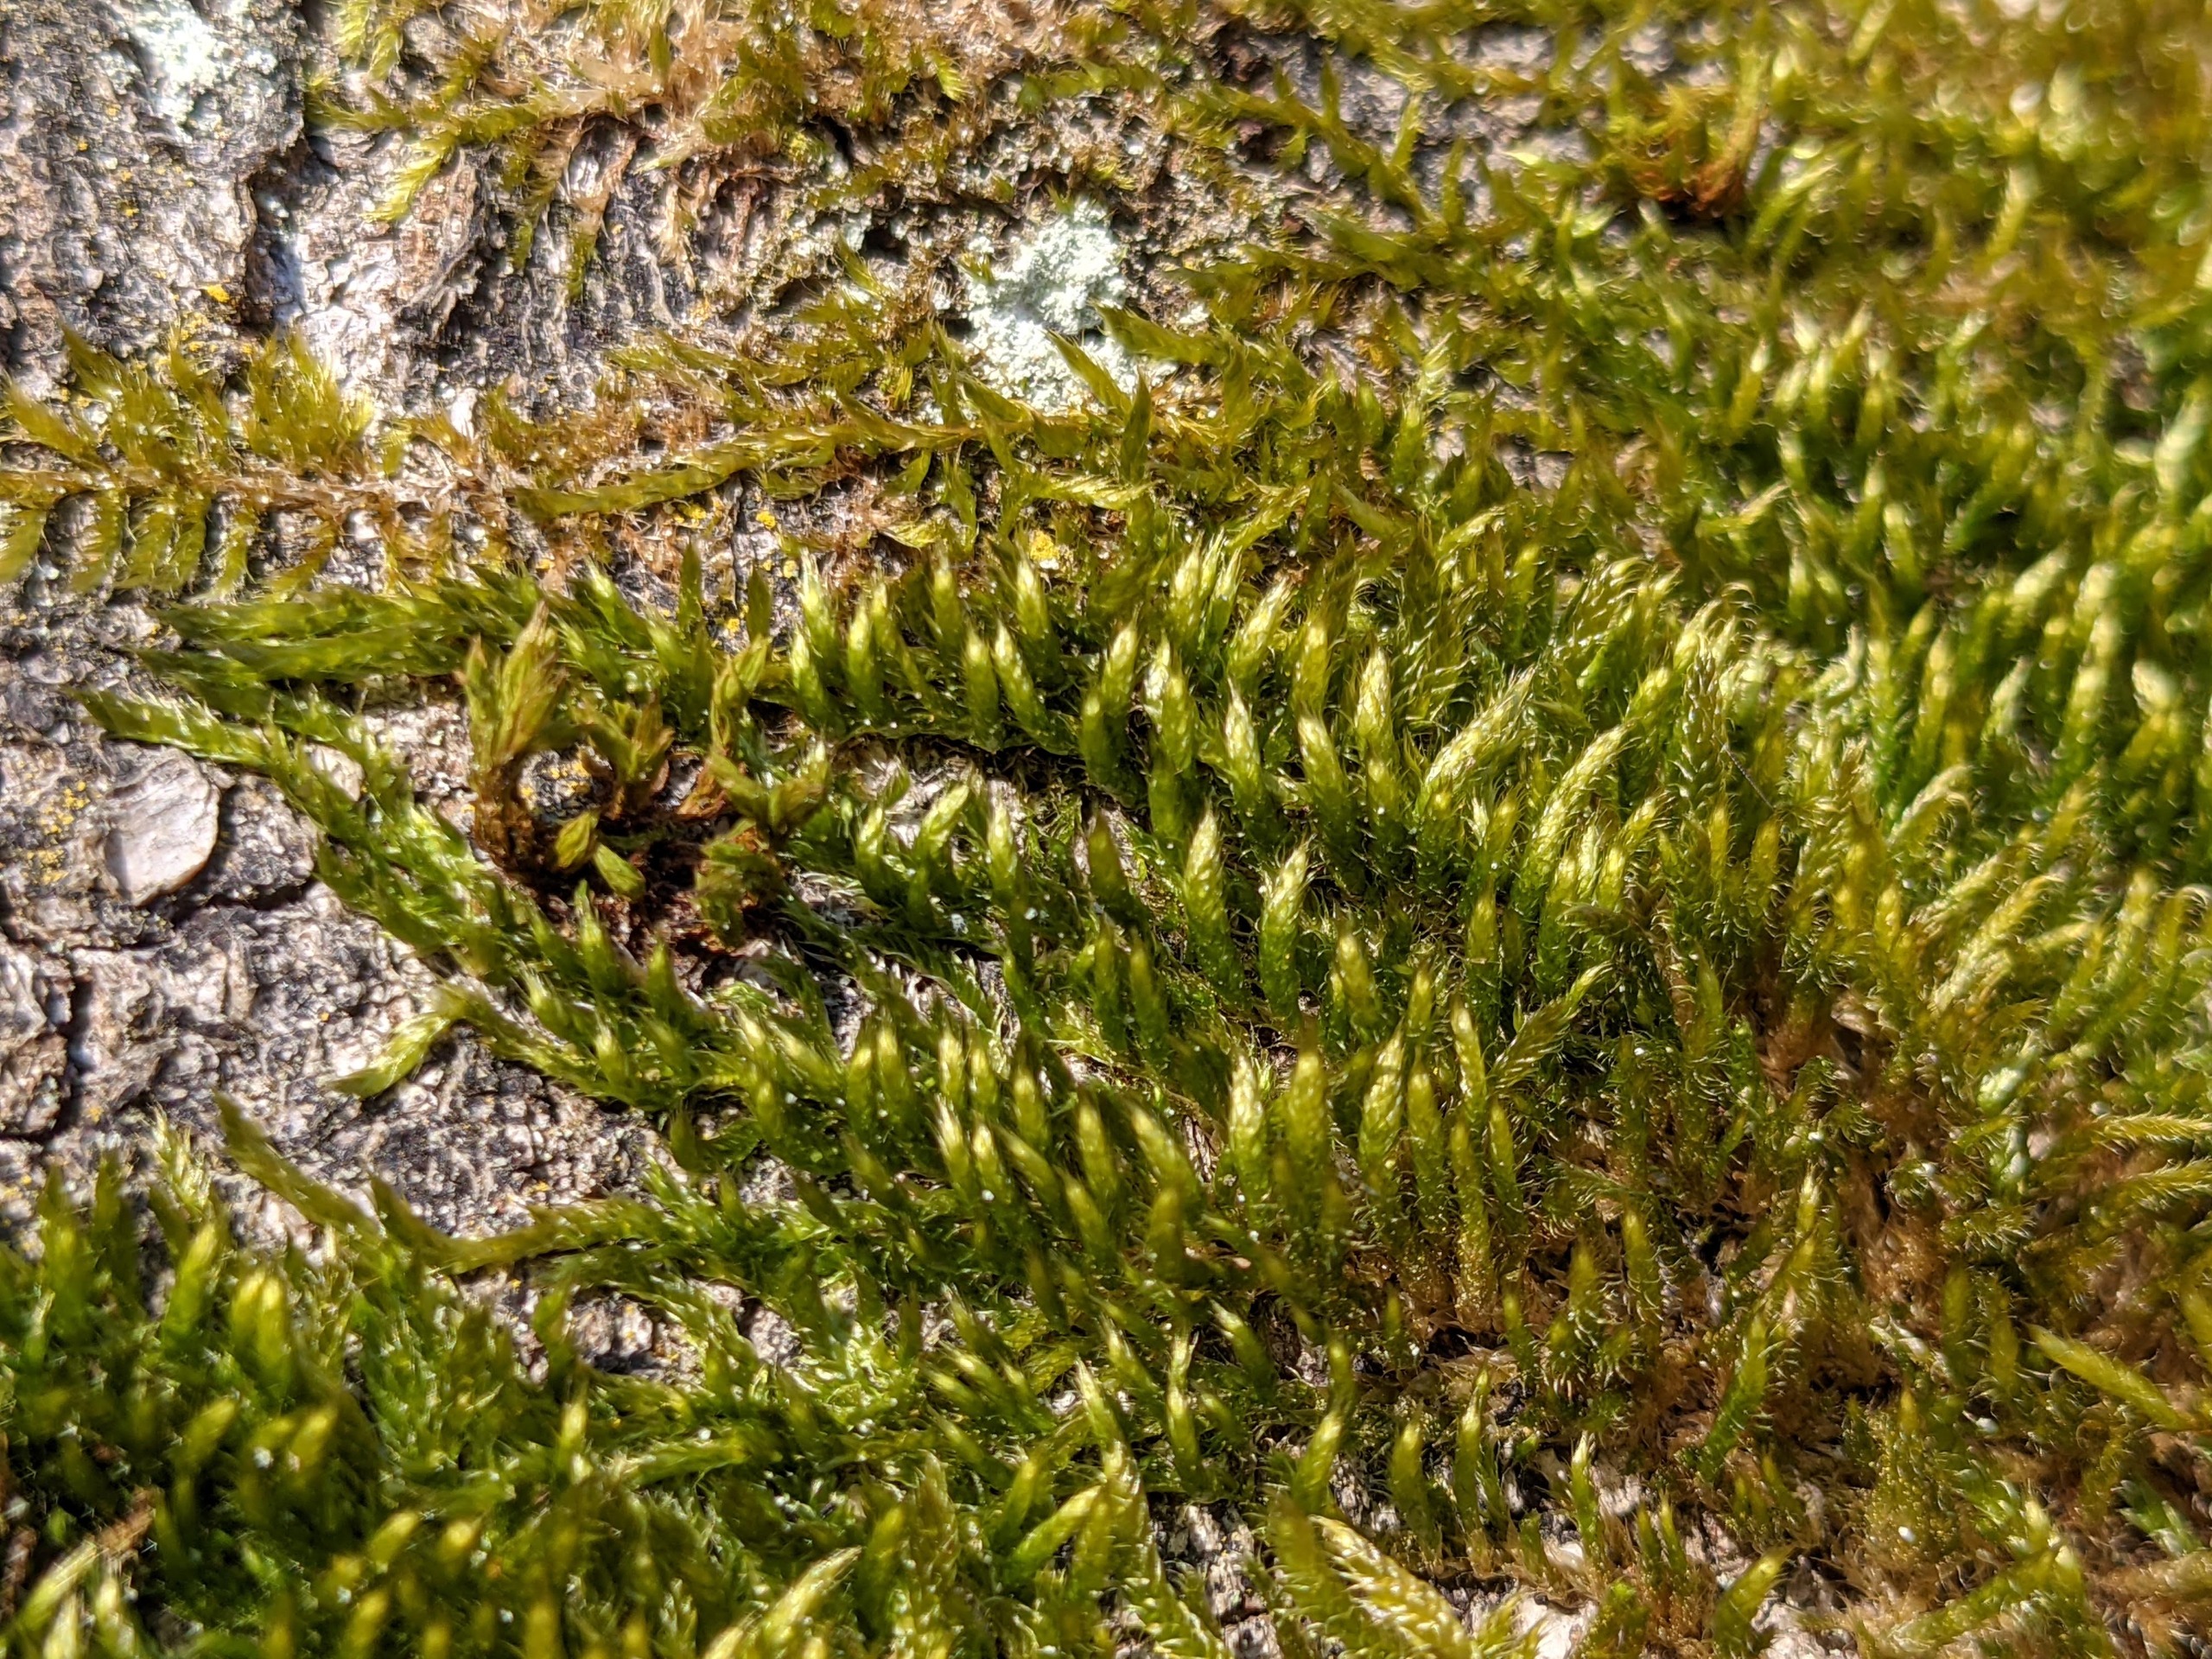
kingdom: Plantae
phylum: Bryophyta
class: Bryopsida
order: Hypnales
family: Hypnaceae
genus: Hypnum
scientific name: Hypnum resupinatum
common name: Ret cypresmos
